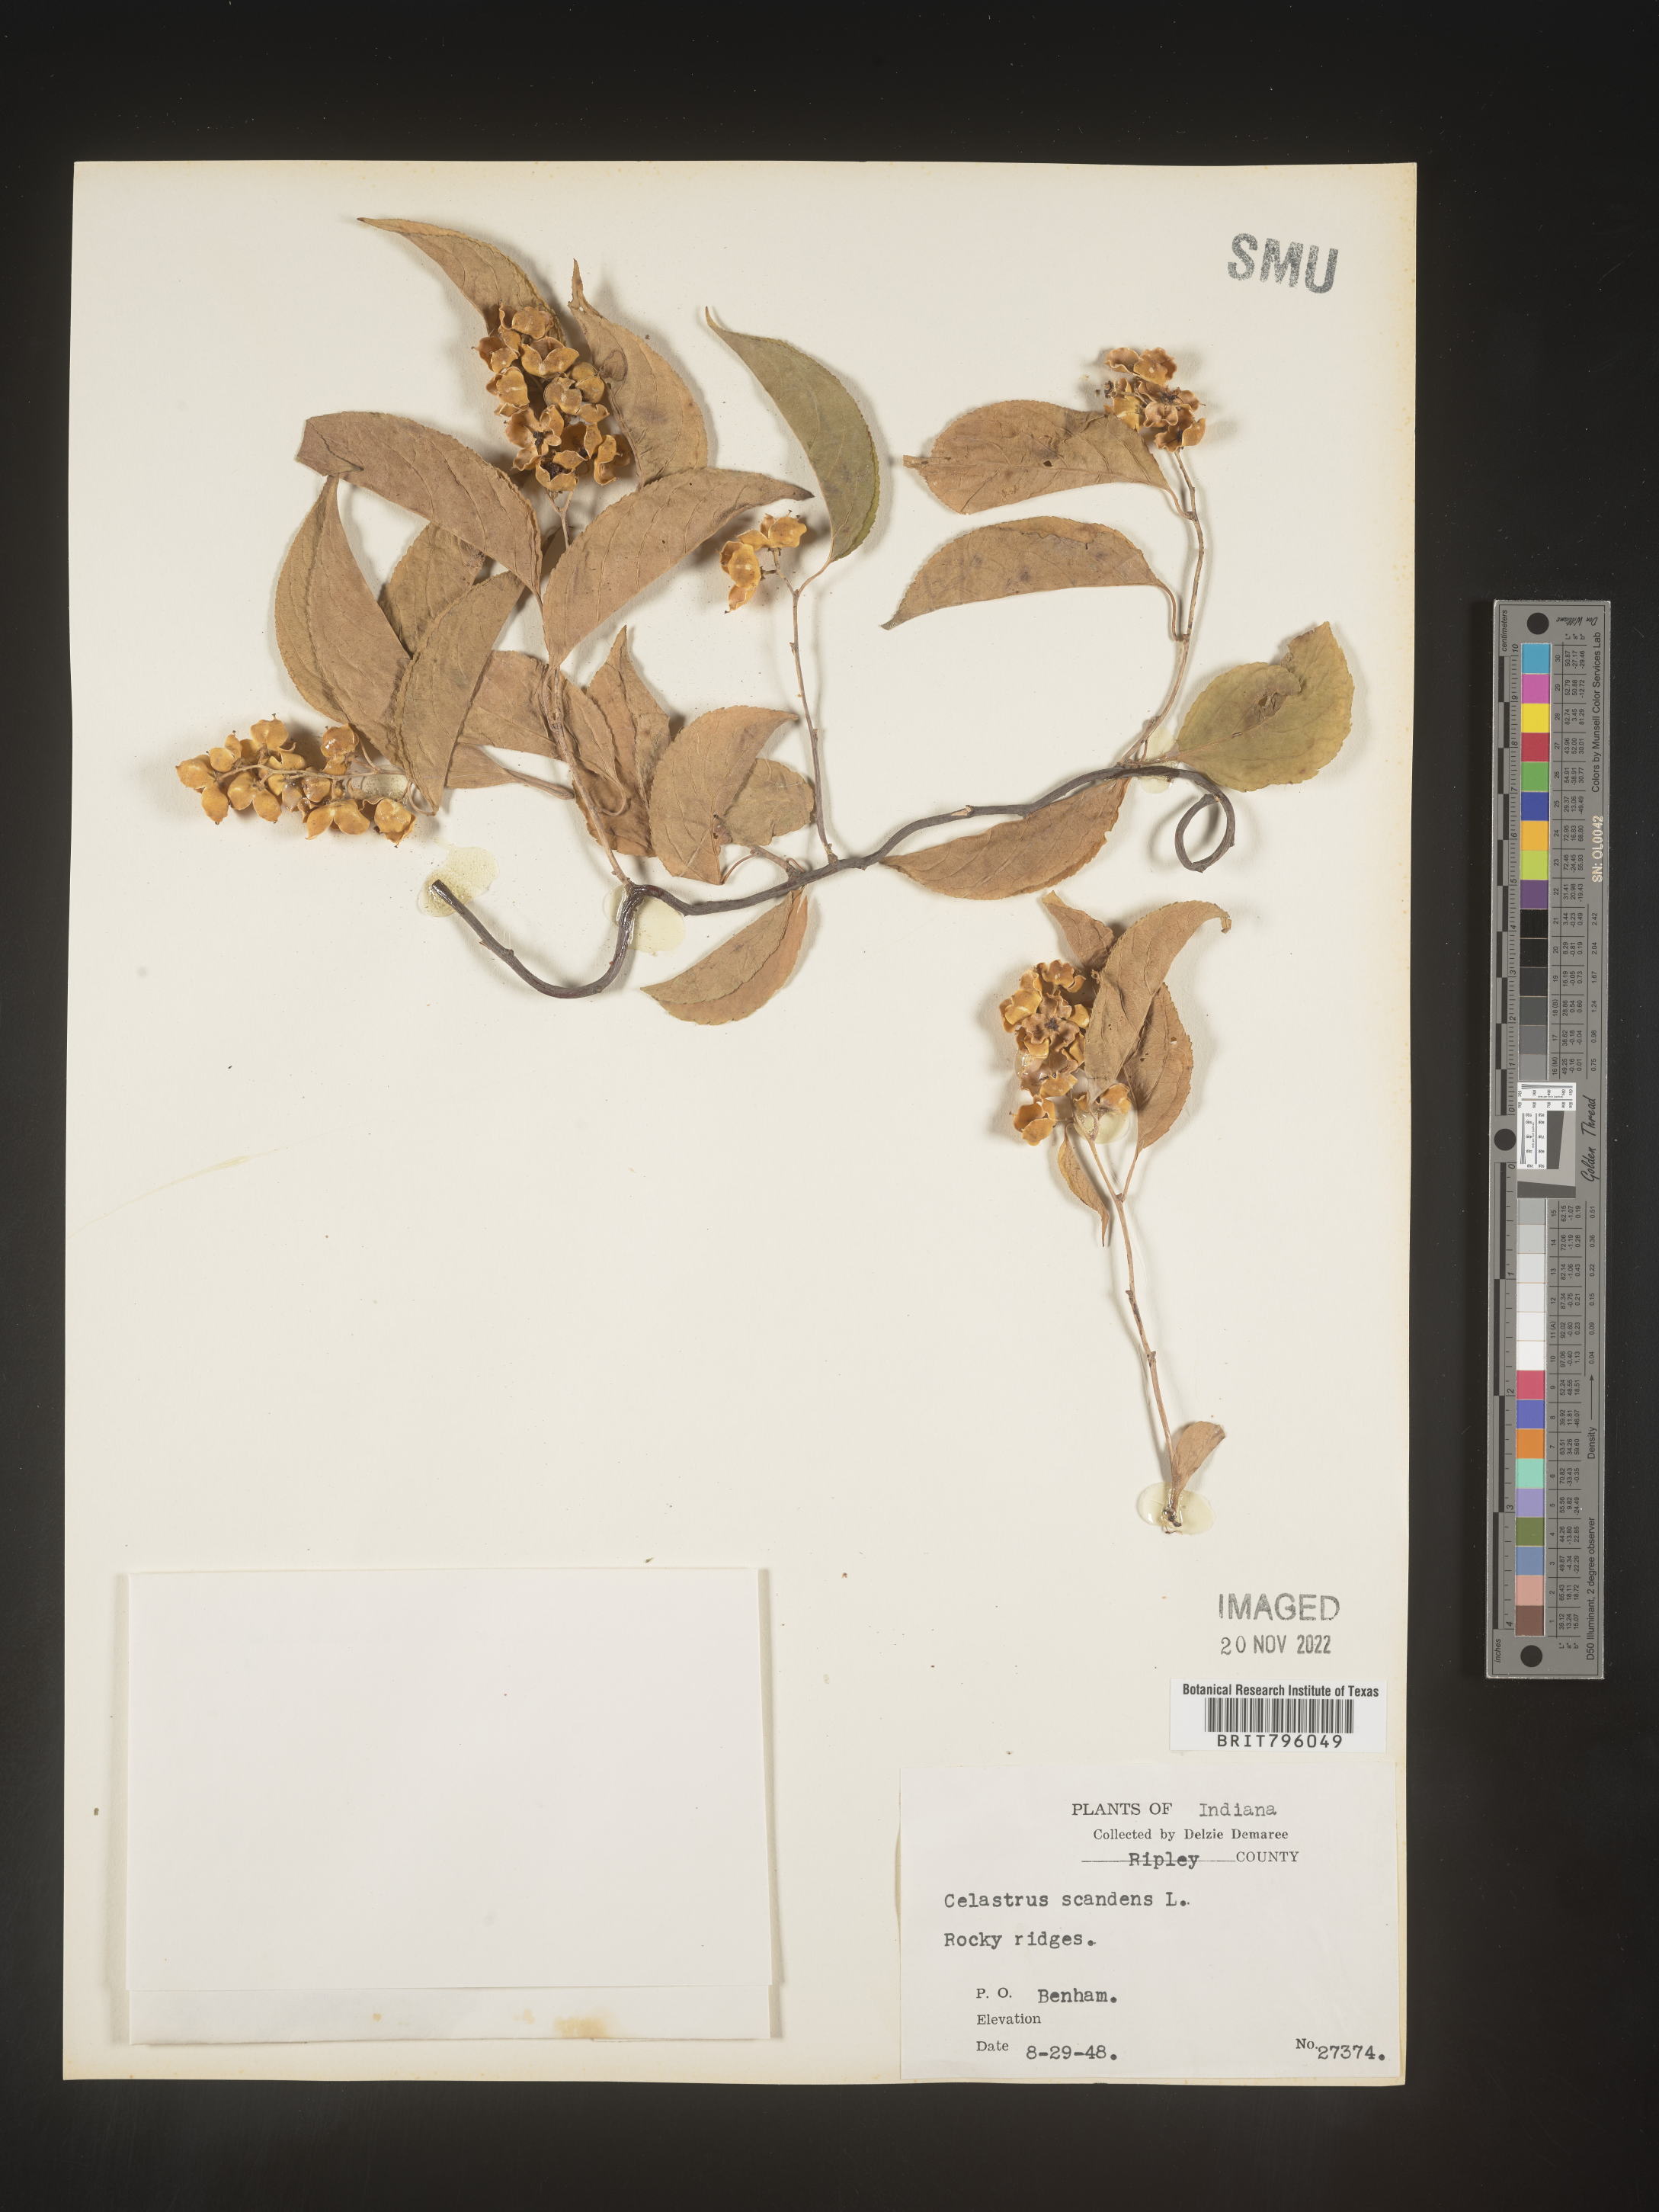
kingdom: Plantae
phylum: Tracheophyta
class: Magnoliopsida
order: Celastrales
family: Celastraceae
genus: Celastrus
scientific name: Celastrus scandens
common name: American bittersweet
